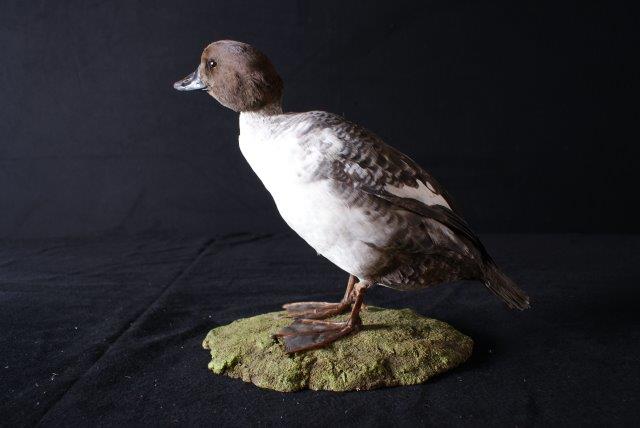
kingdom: Animalia
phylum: Chordata
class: Aves
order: Anseriformes
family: Anatidae
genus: Bucephala
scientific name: Bucephala clangula
